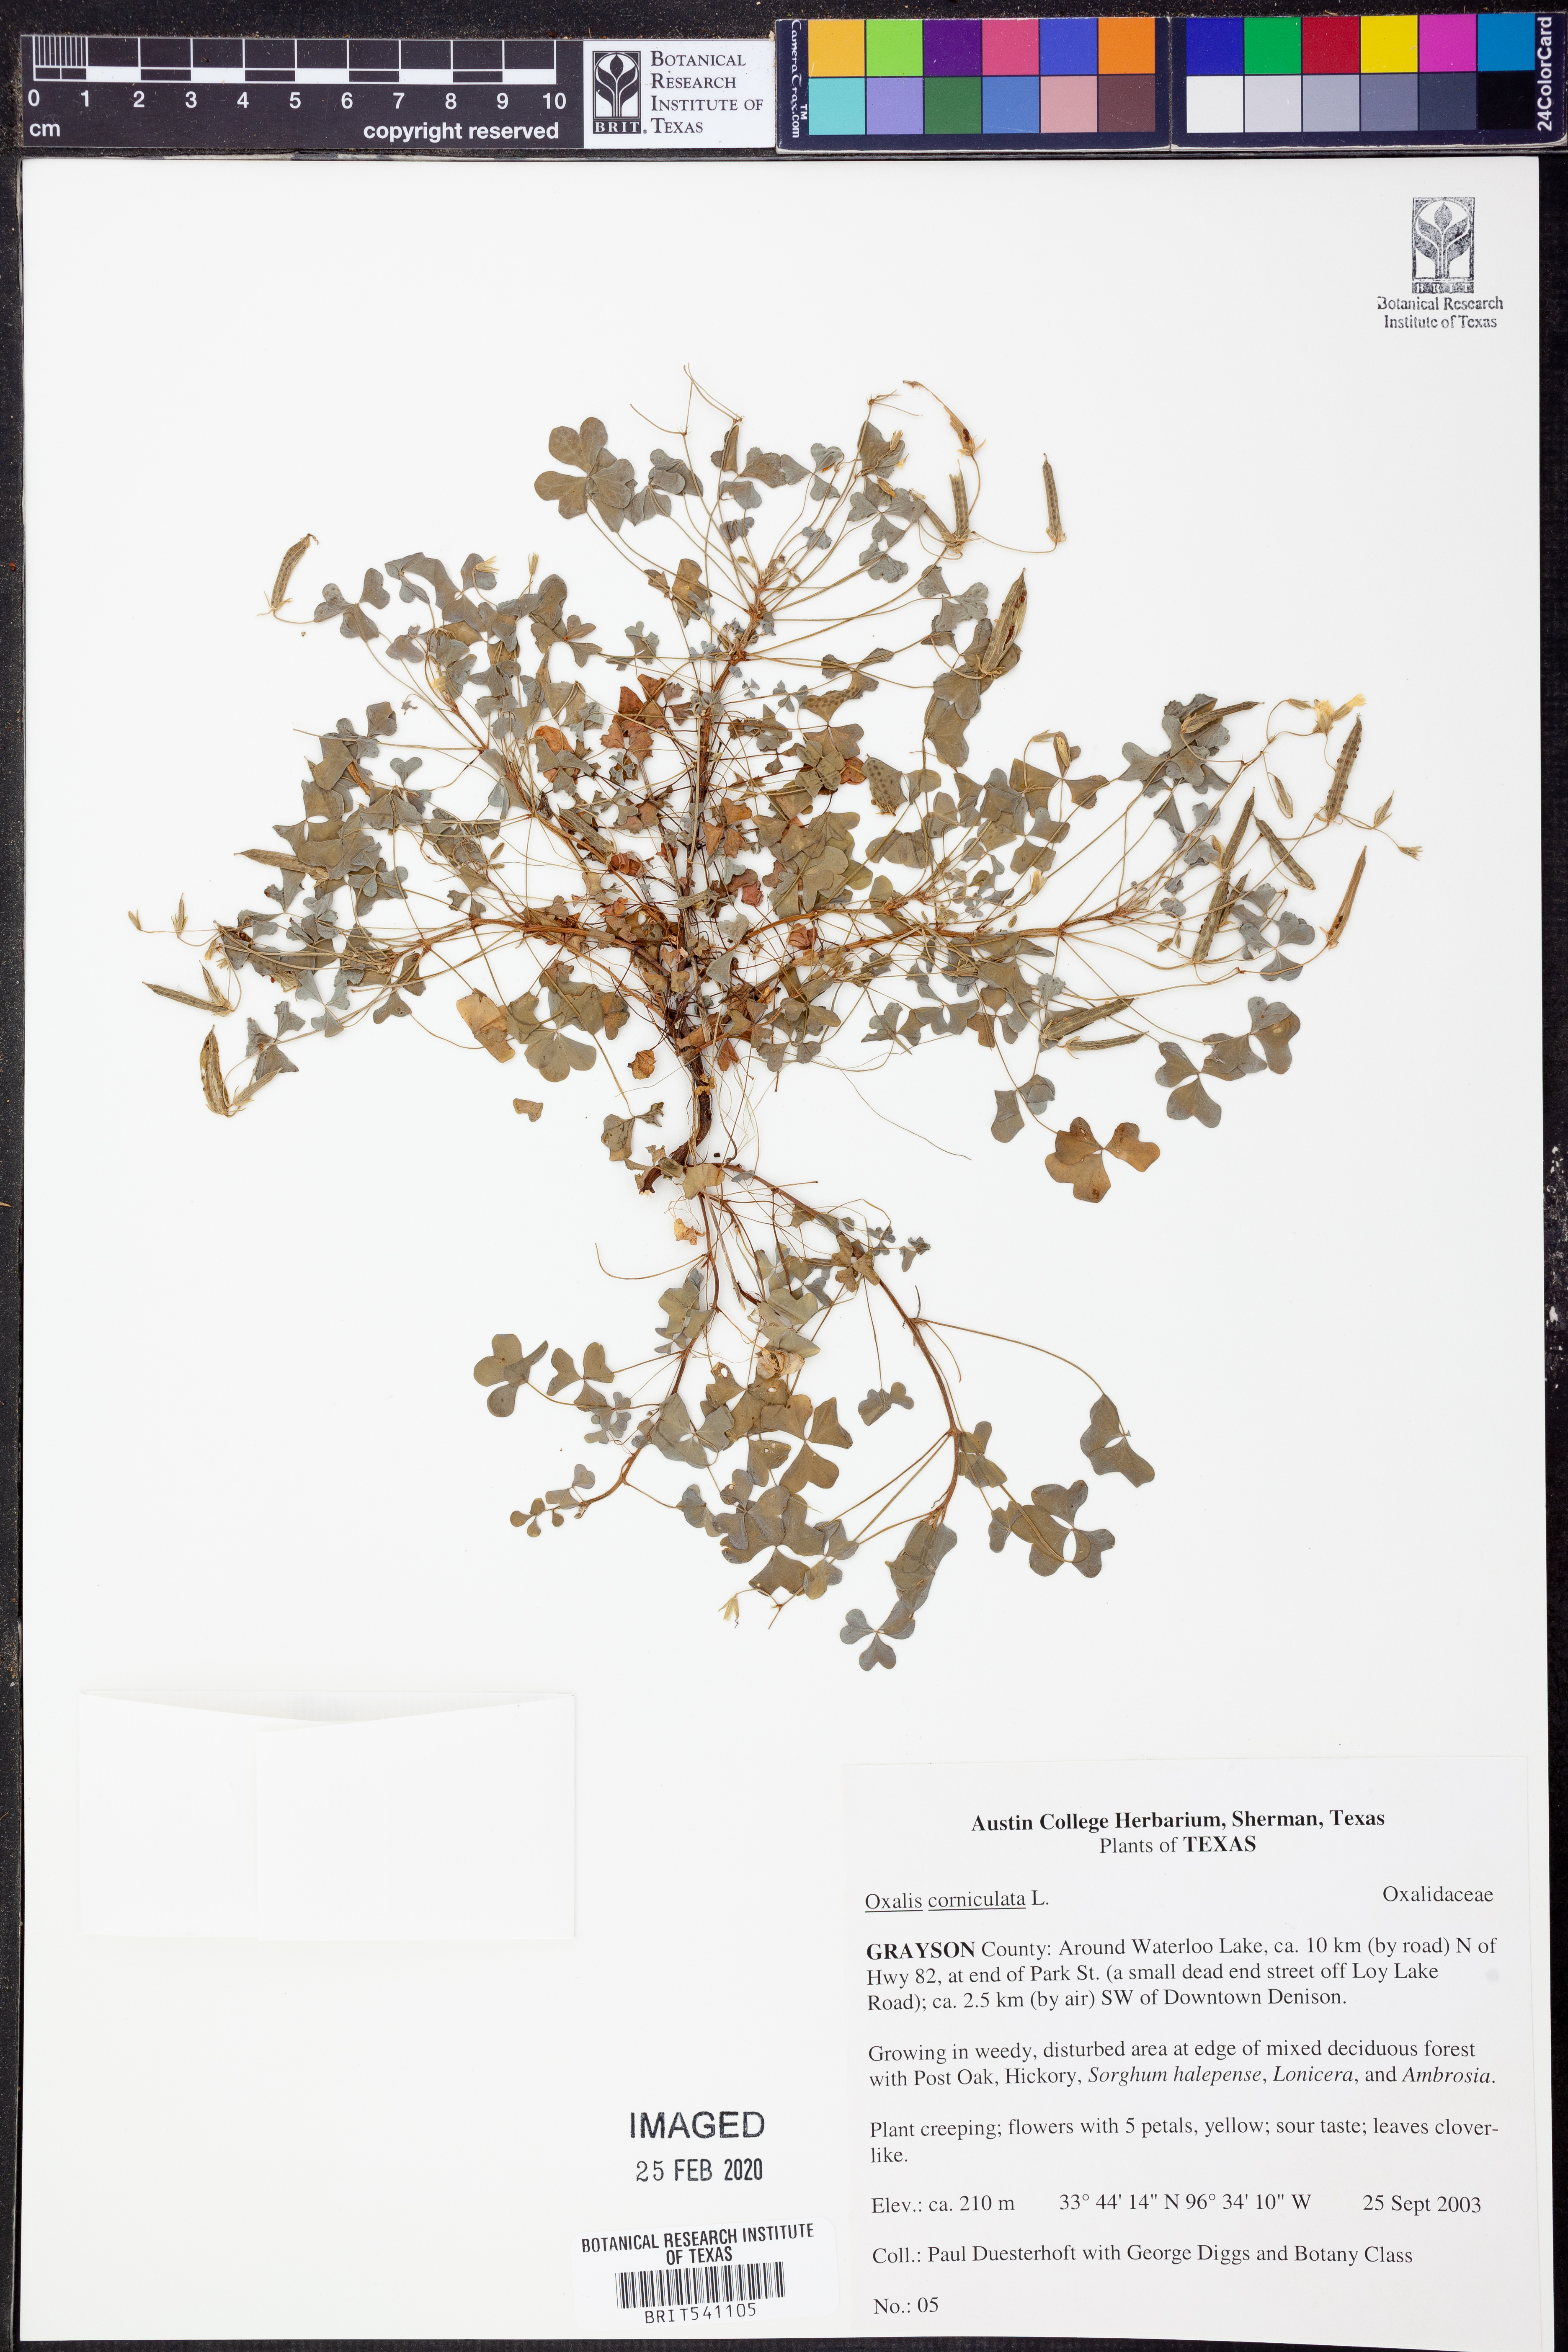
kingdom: Plantae
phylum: Tracheophyta
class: Magnoliopsida
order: Oxalidales
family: Oxalidaceae
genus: Oxalis
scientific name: Oxalis corniculata
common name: Procumbent yellow-sorrel
